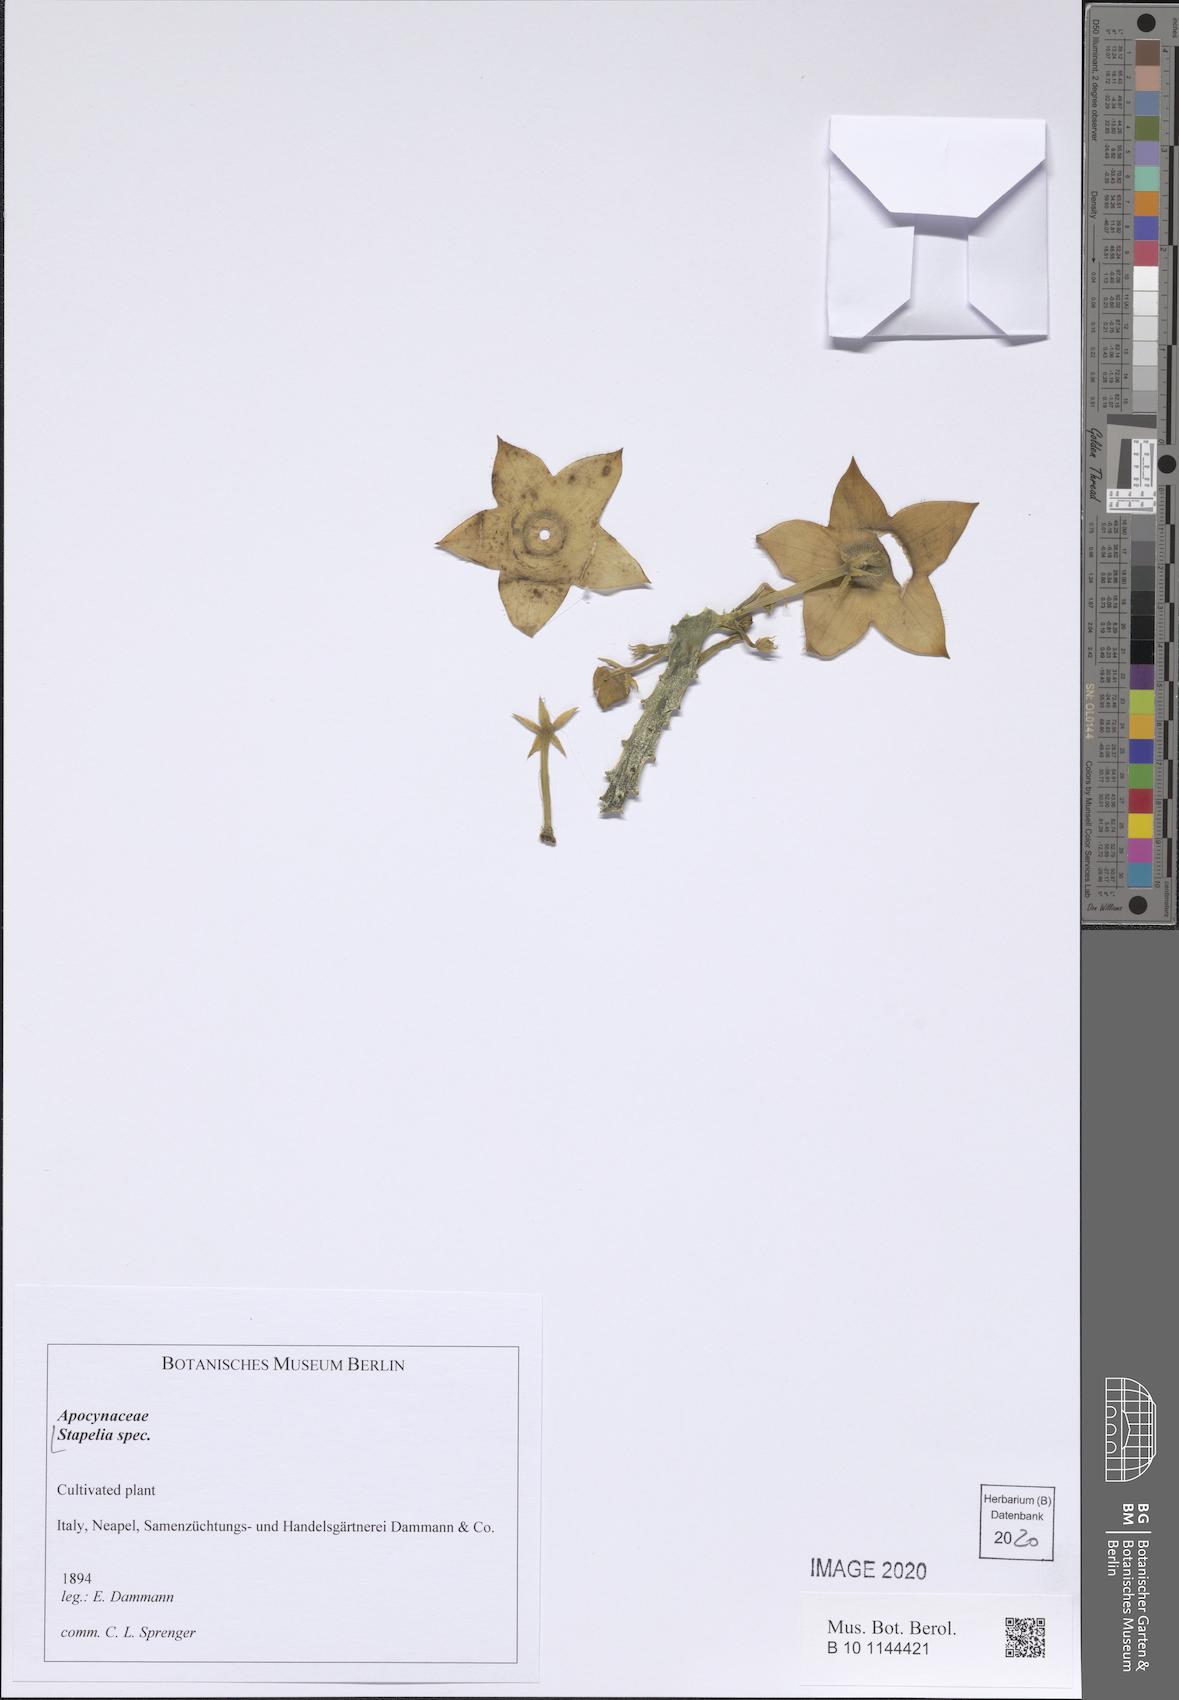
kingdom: Plantae
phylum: Tracheophyta
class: Magnoliopsida
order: Gentianales
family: Apocynaceae
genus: Stapelia
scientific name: Stapelia
